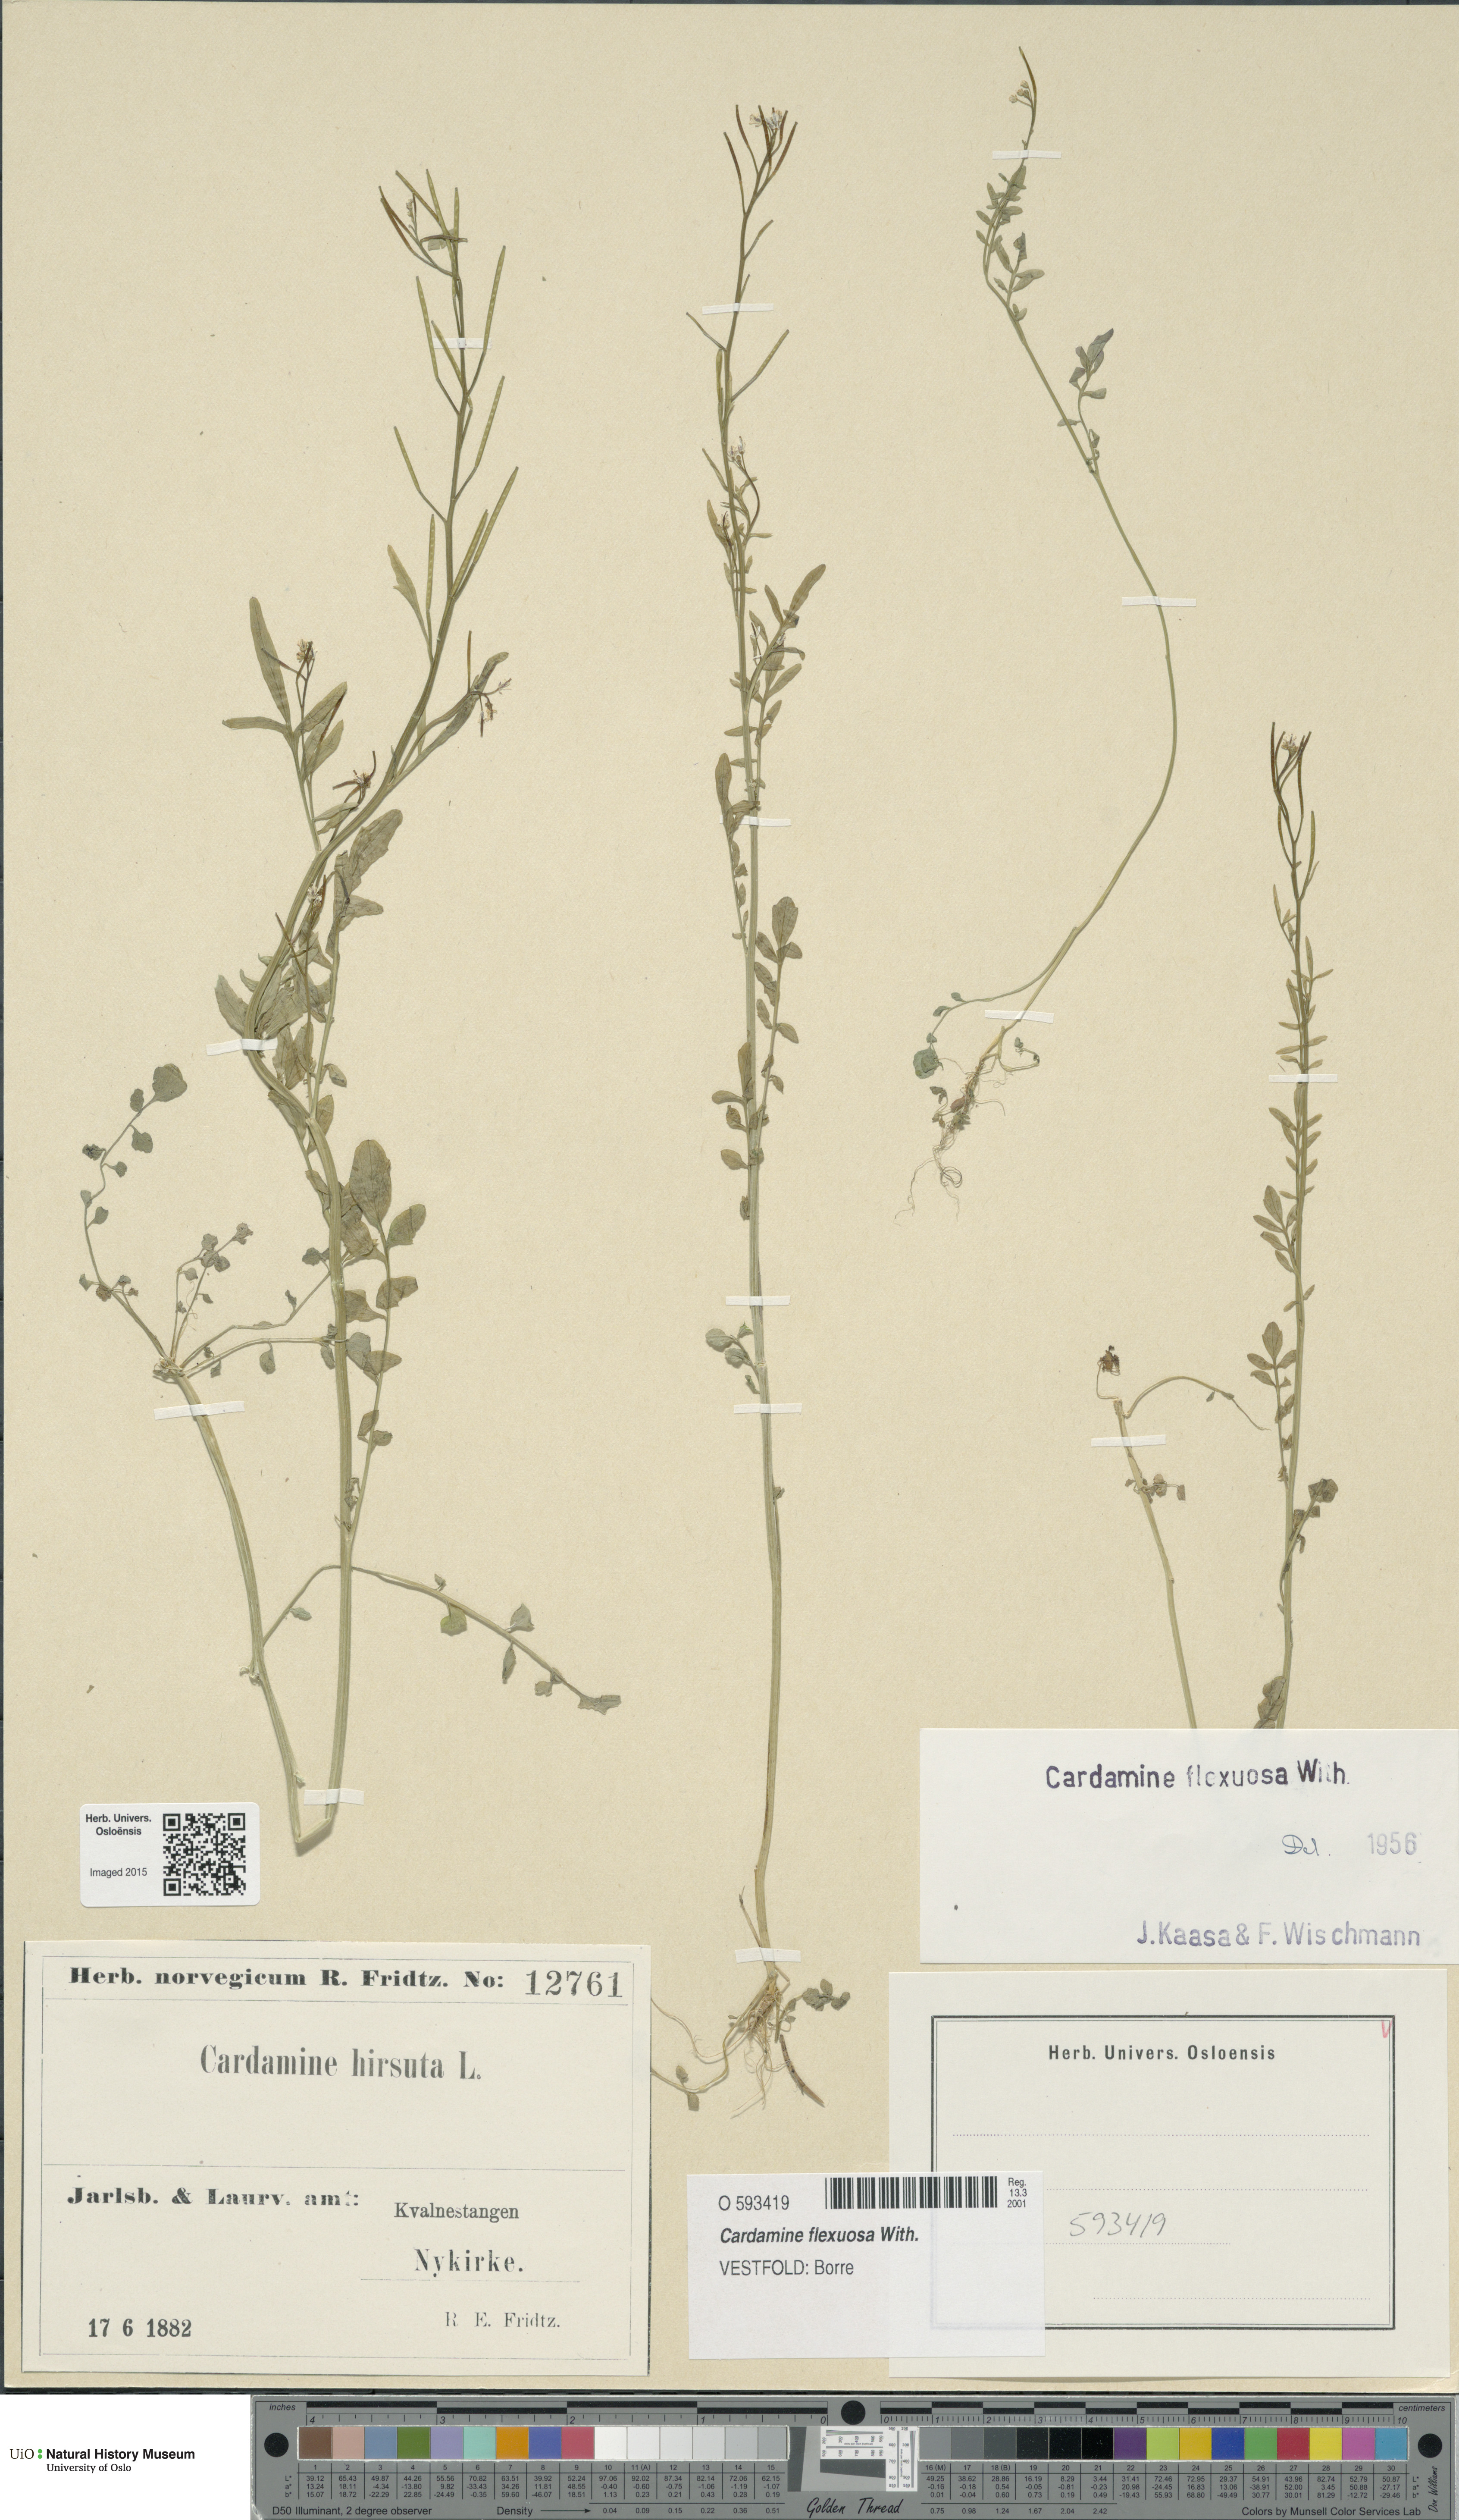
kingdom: Plantae
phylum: Tracheophyta
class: Magnoliopsida
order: Brassicales
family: Brassicaceae
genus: Cardamine
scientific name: Cardamine flexuosa
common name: Woodland bittercress
